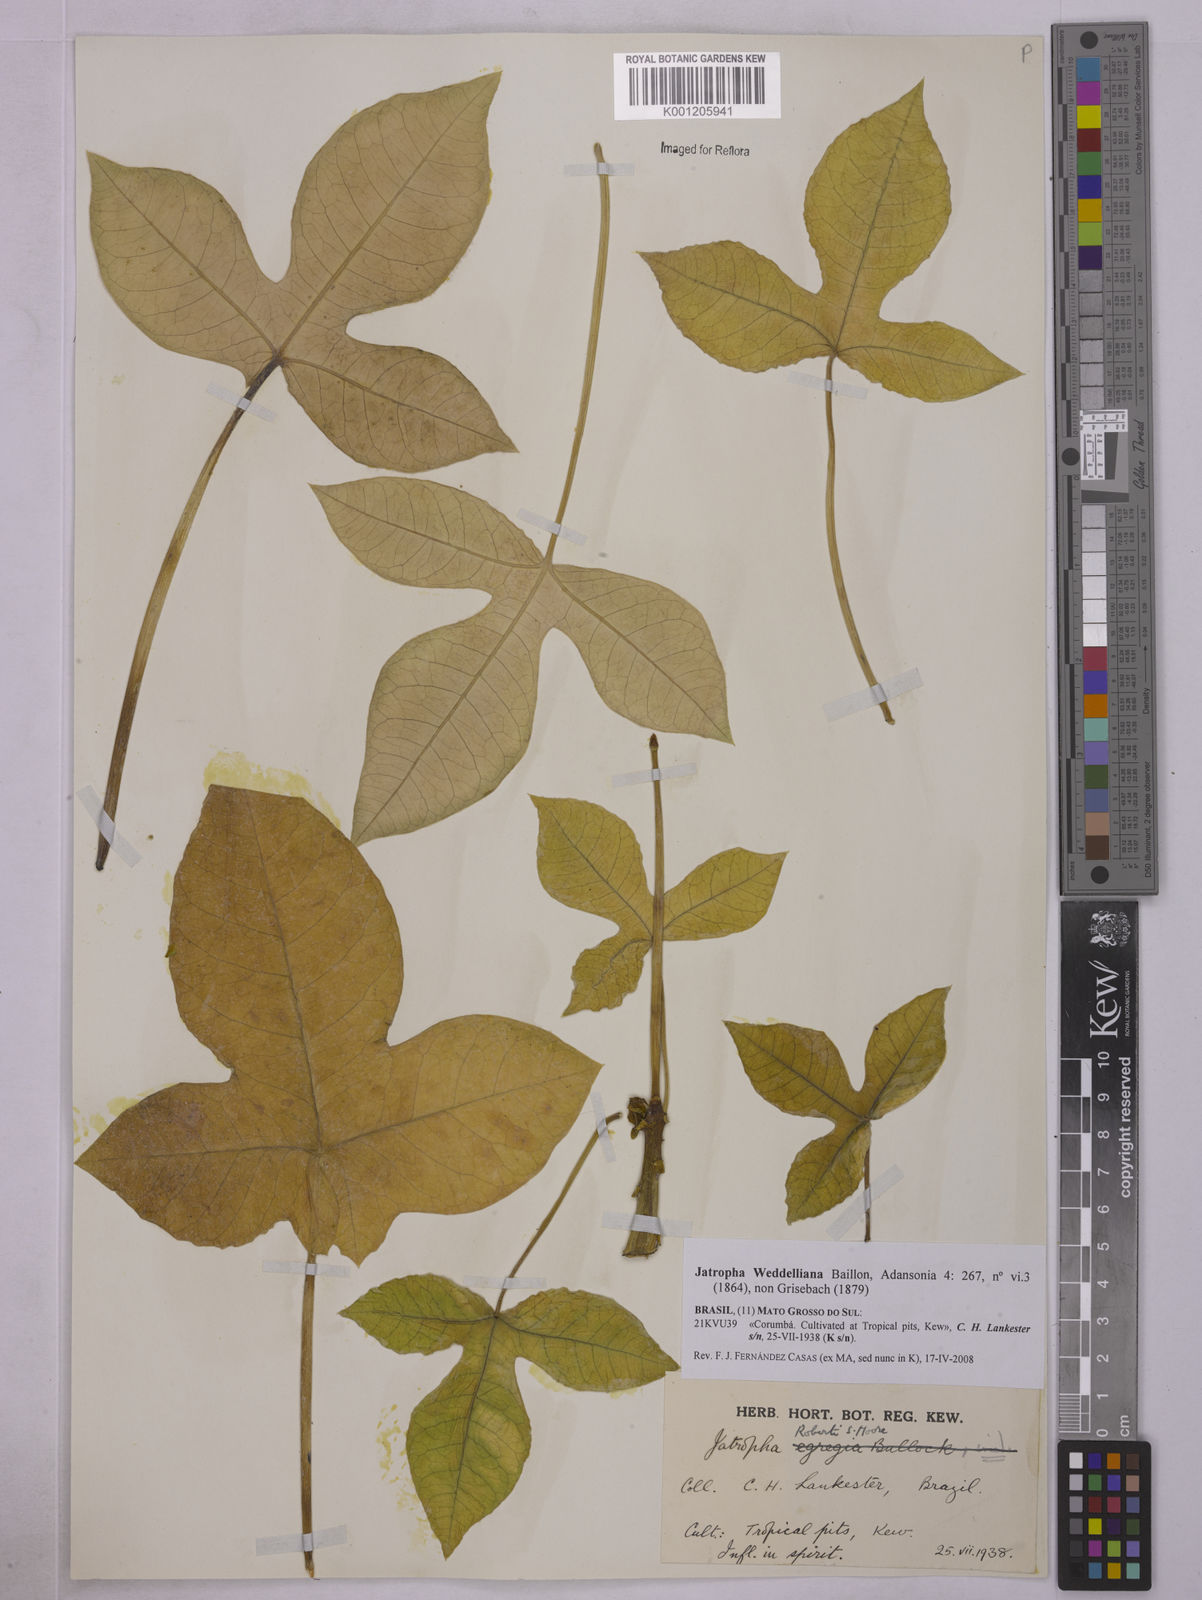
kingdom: Plantae
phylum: Tracheophyta
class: Magnoliopsida
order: Malpighiales
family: Euphorbiaceae
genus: Jatropha
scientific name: Jatropha weddeliana
